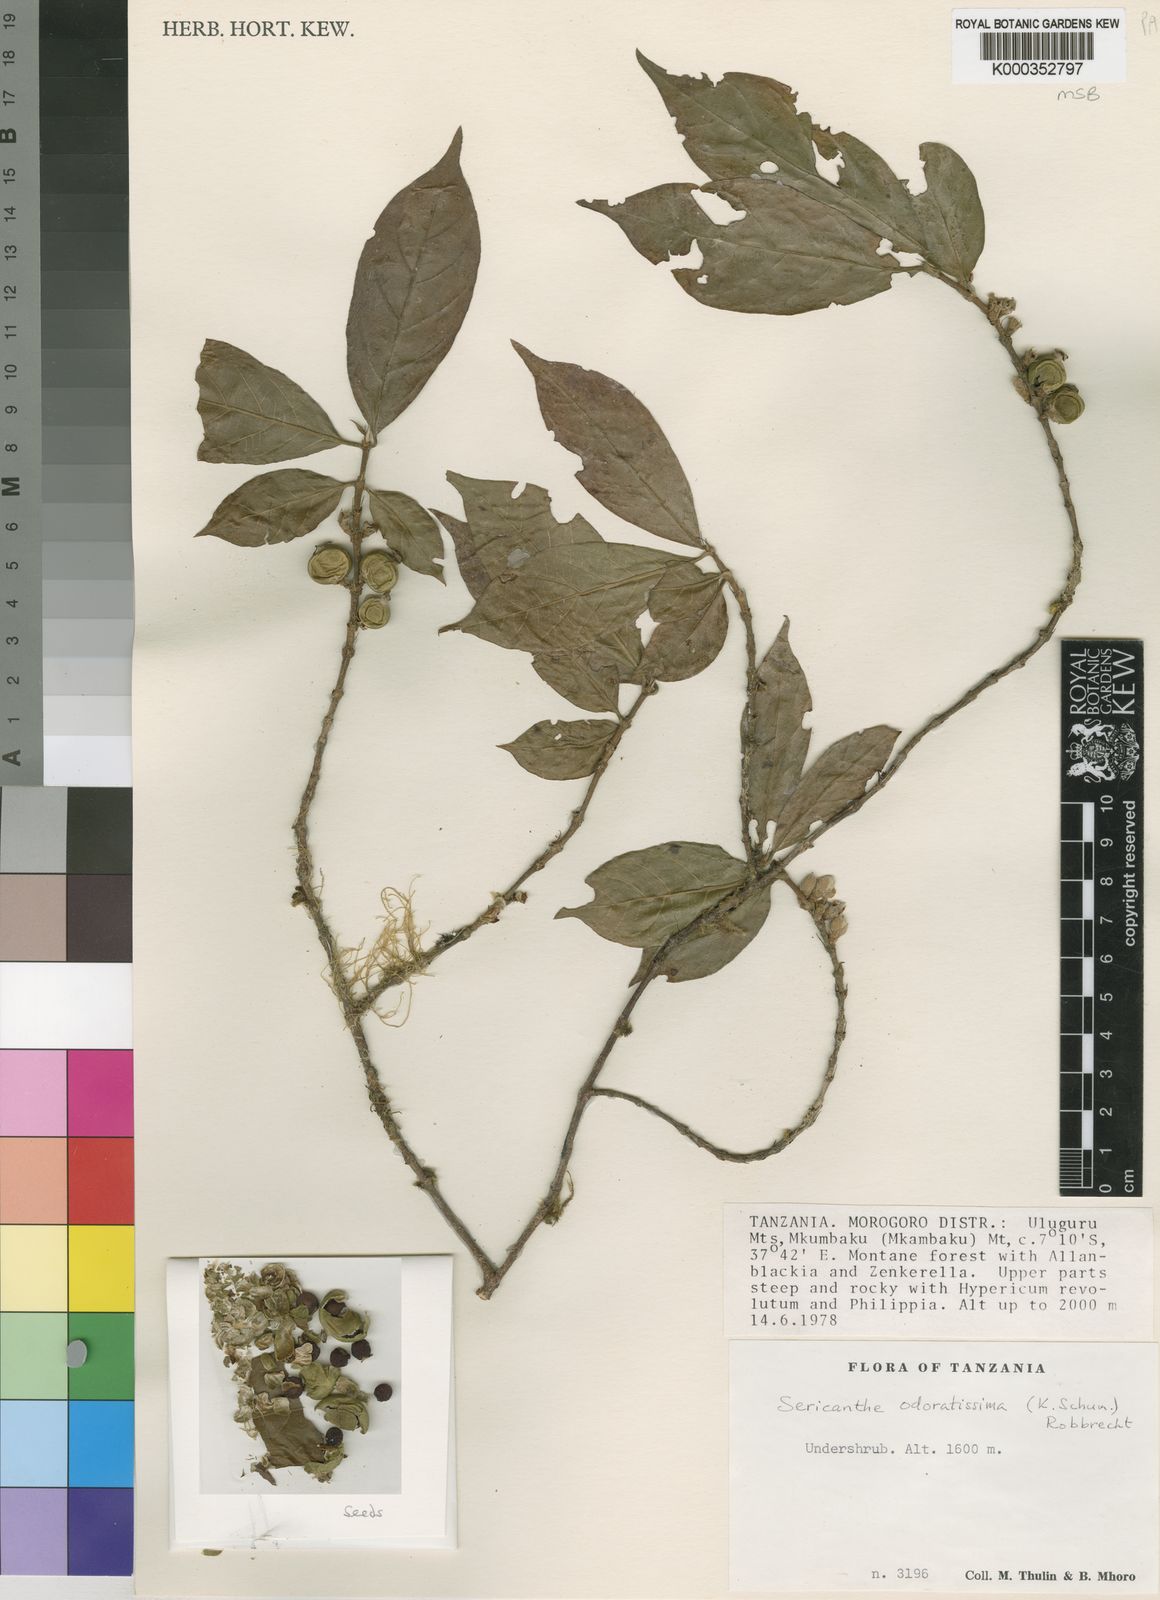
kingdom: Plantae
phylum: Tracheophyta
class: Magnoliopsida
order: Gentianales
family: Rubiaceae
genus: Sericanthe
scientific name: Sericanthe odoratissima
